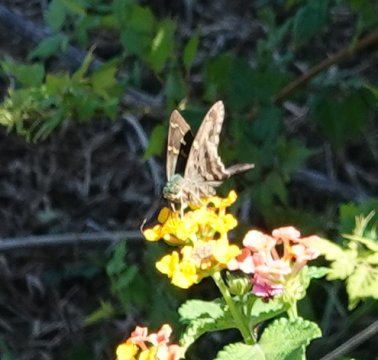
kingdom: Animalia
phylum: Arthropoda
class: Insecta
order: Lepidoptera
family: Hesperiidae
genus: Urbanus
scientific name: Urbanus proteus
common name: Long-tailed Skipper
